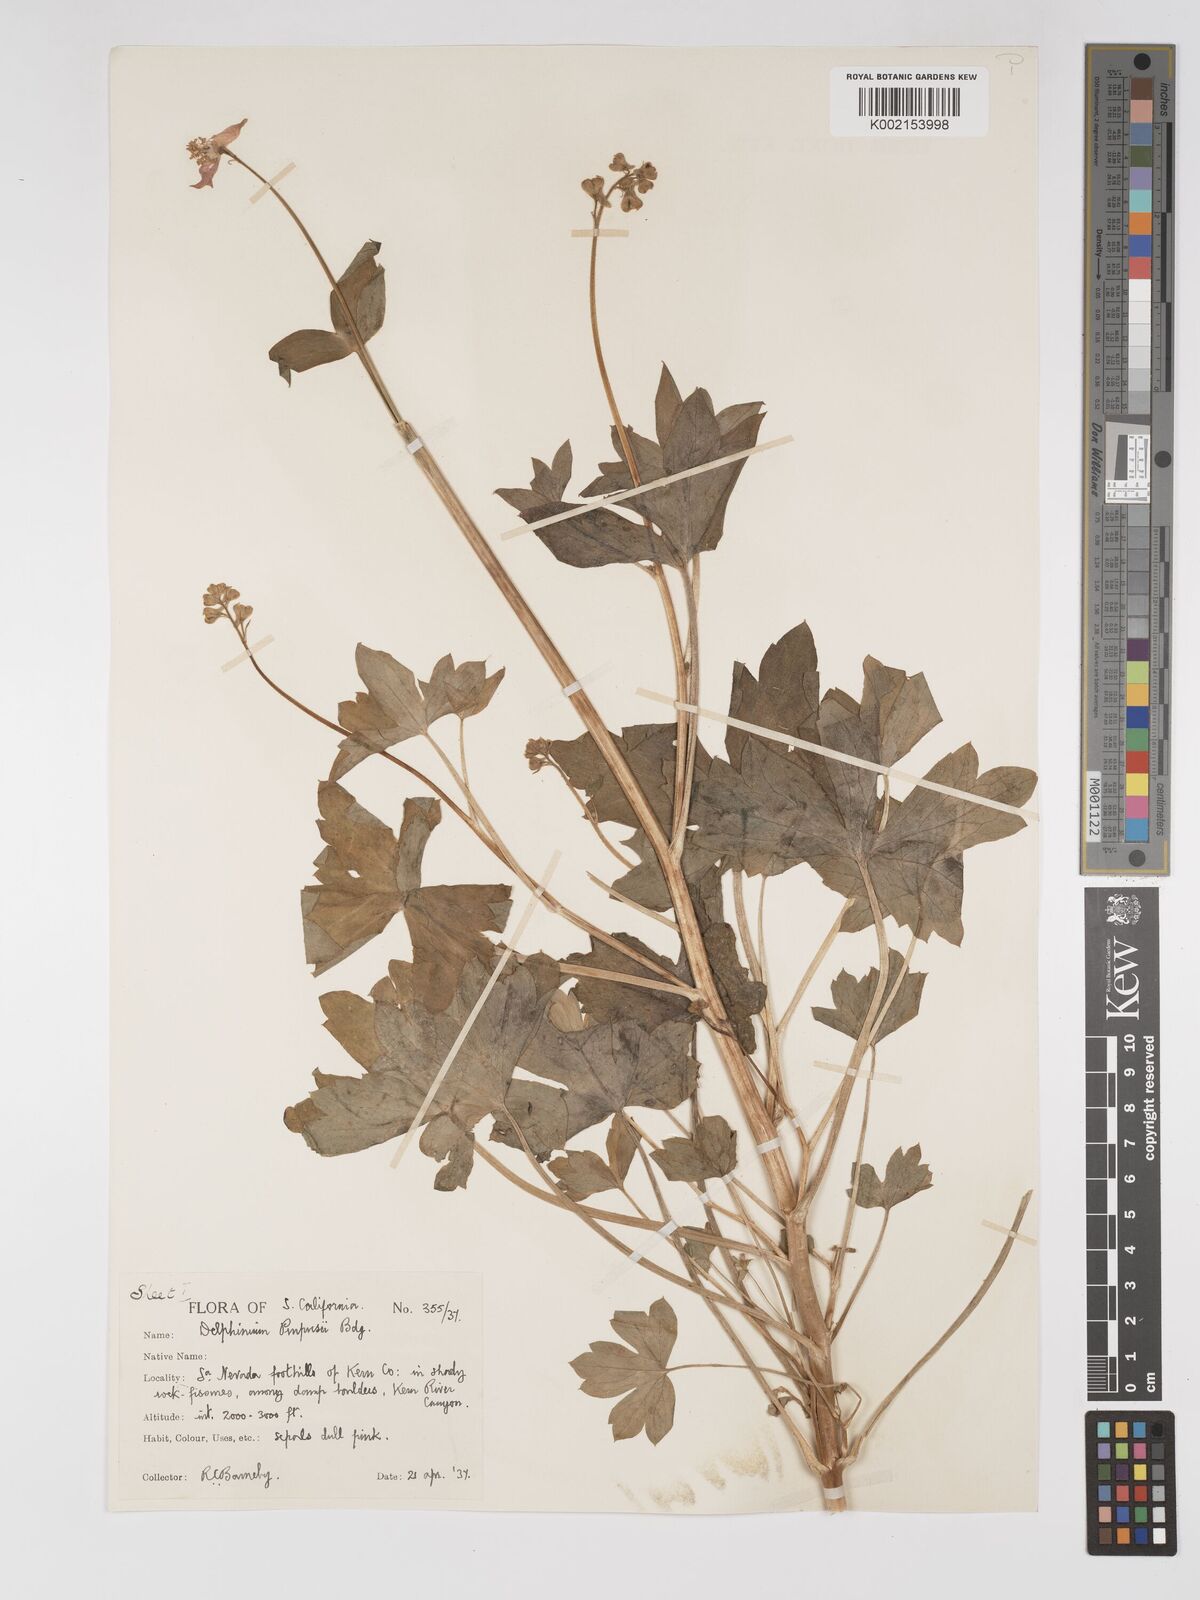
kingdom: Plantae
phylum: Tracheophyta
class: Magnoliopsida
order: Ranunculales
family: Ranunculaceae
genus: Delphinium
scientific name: Delphinium purpusii
